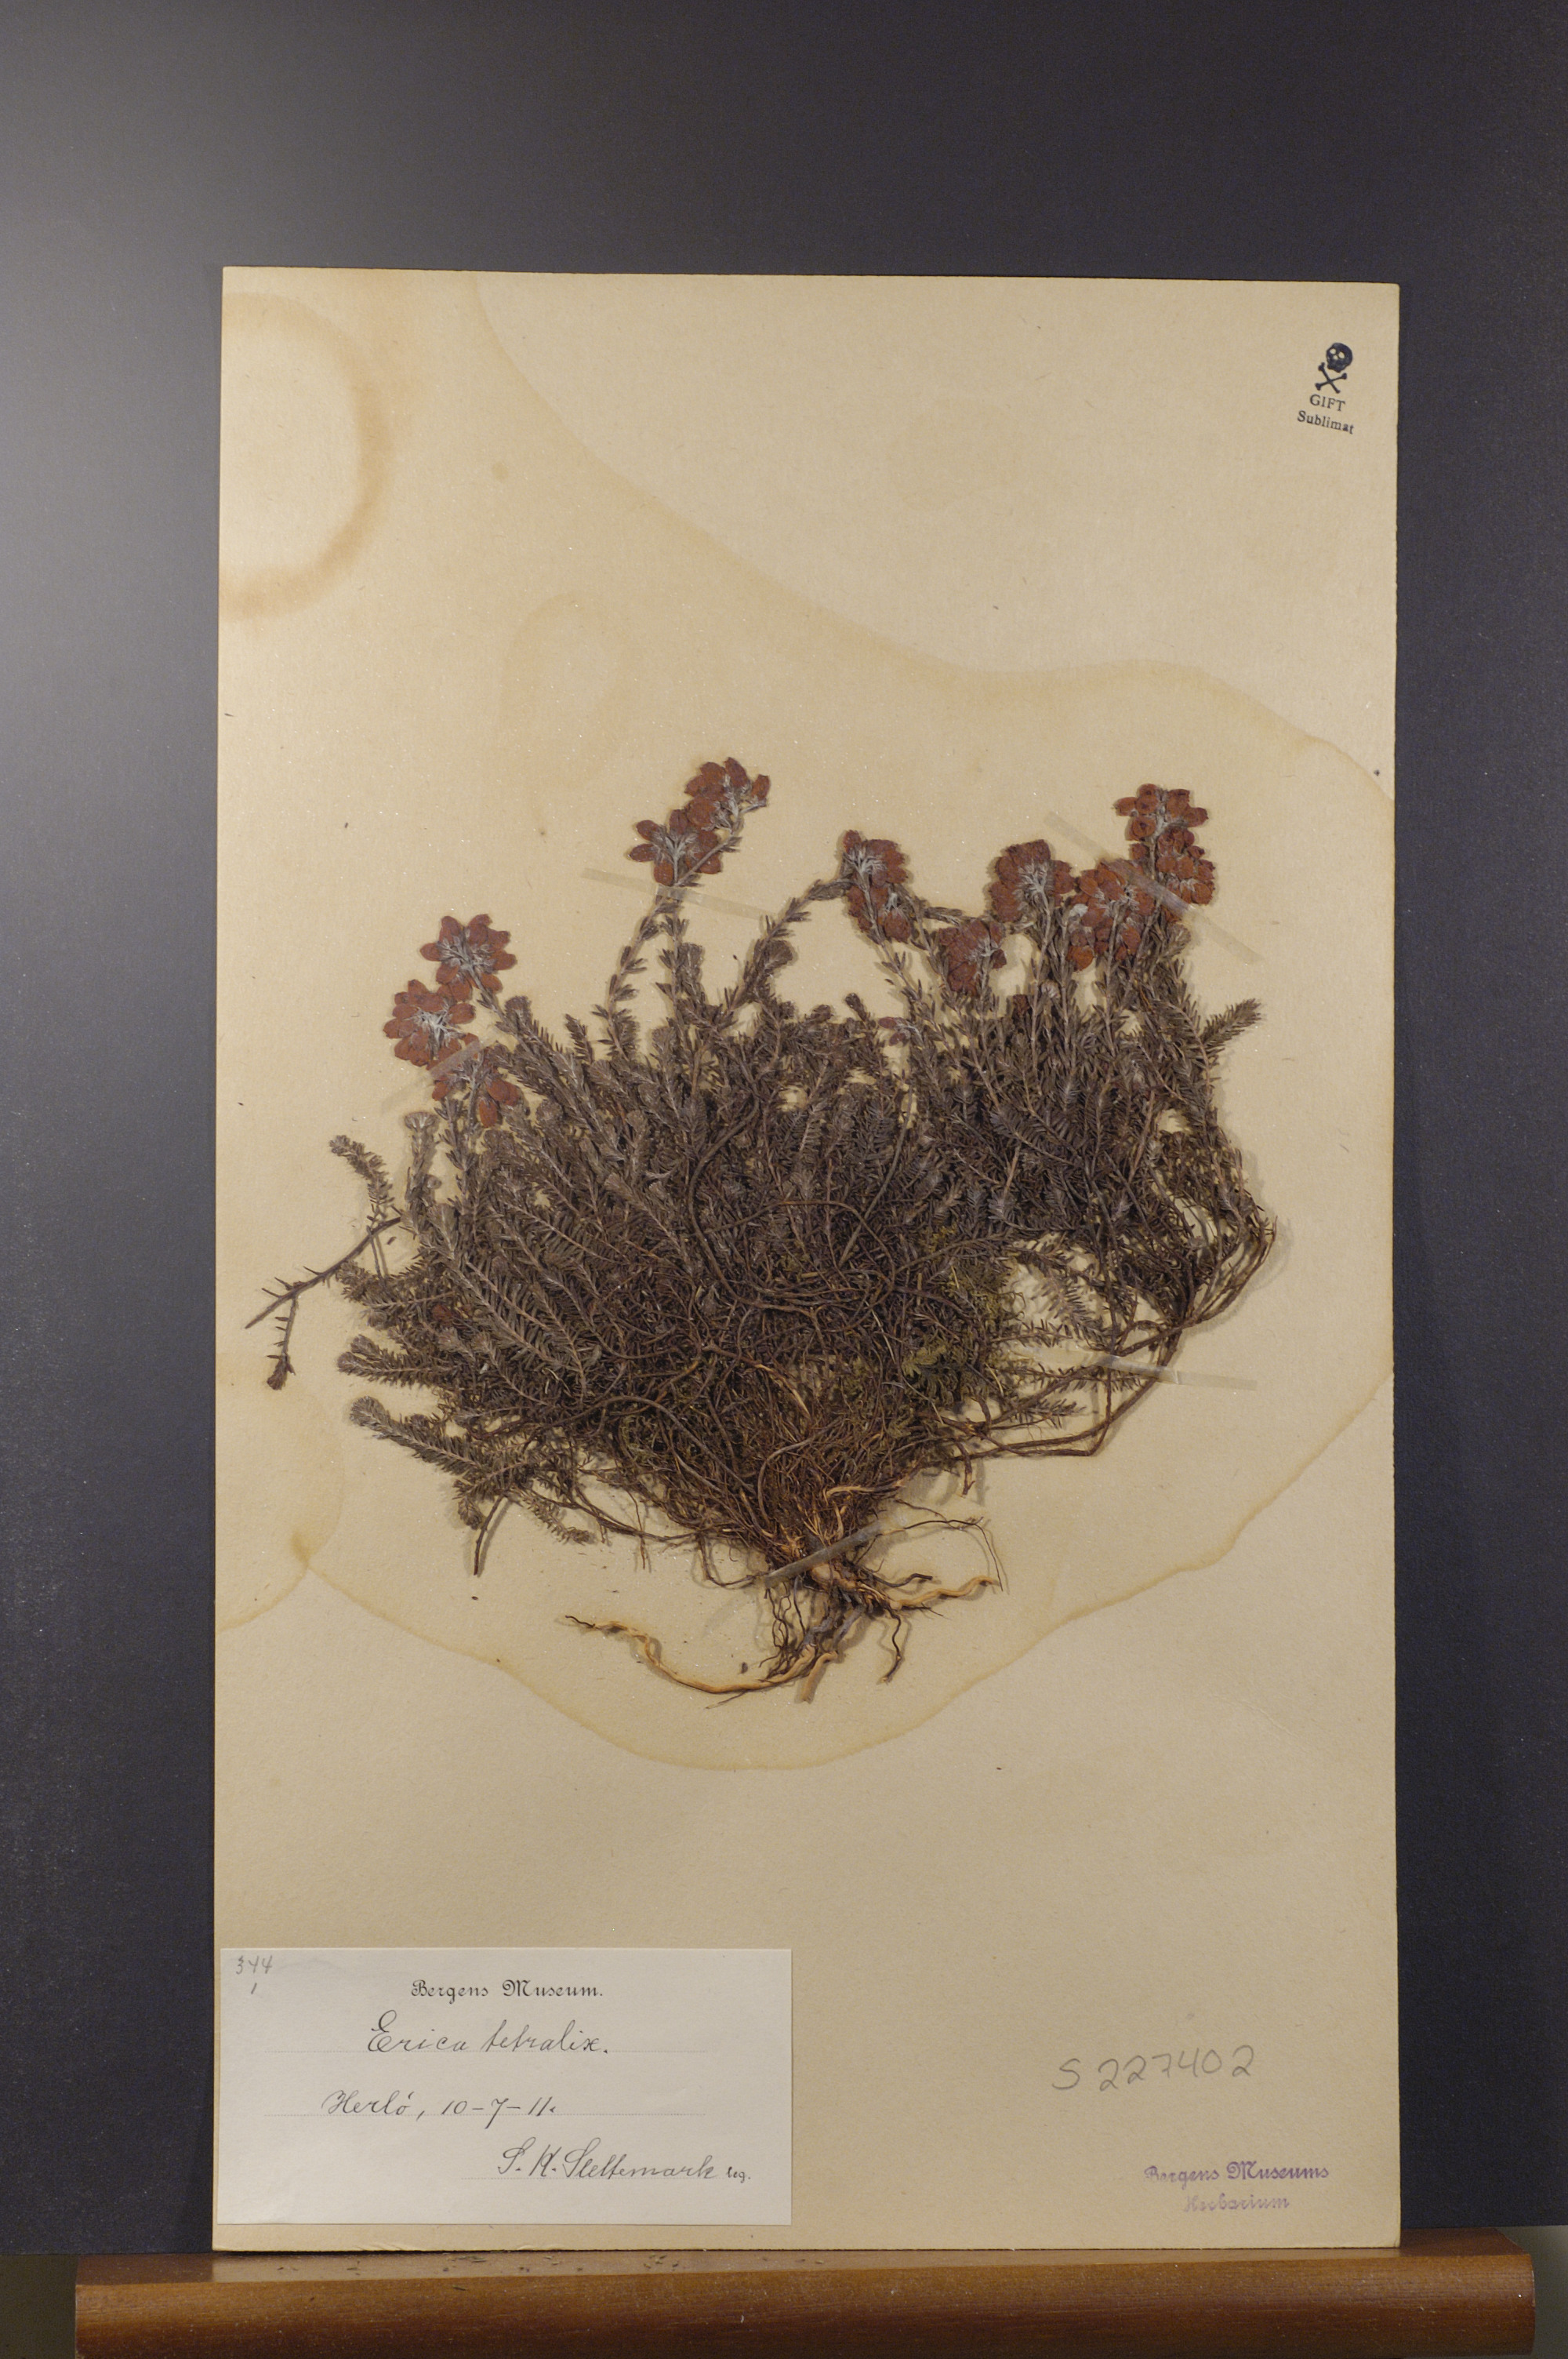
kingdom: Plantae
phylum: Tracheophyta
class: Magnoliopsida
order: Ericales
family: Ericaceae
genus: Erica
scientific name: Erica tetralix
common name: Cross-leaved heath
